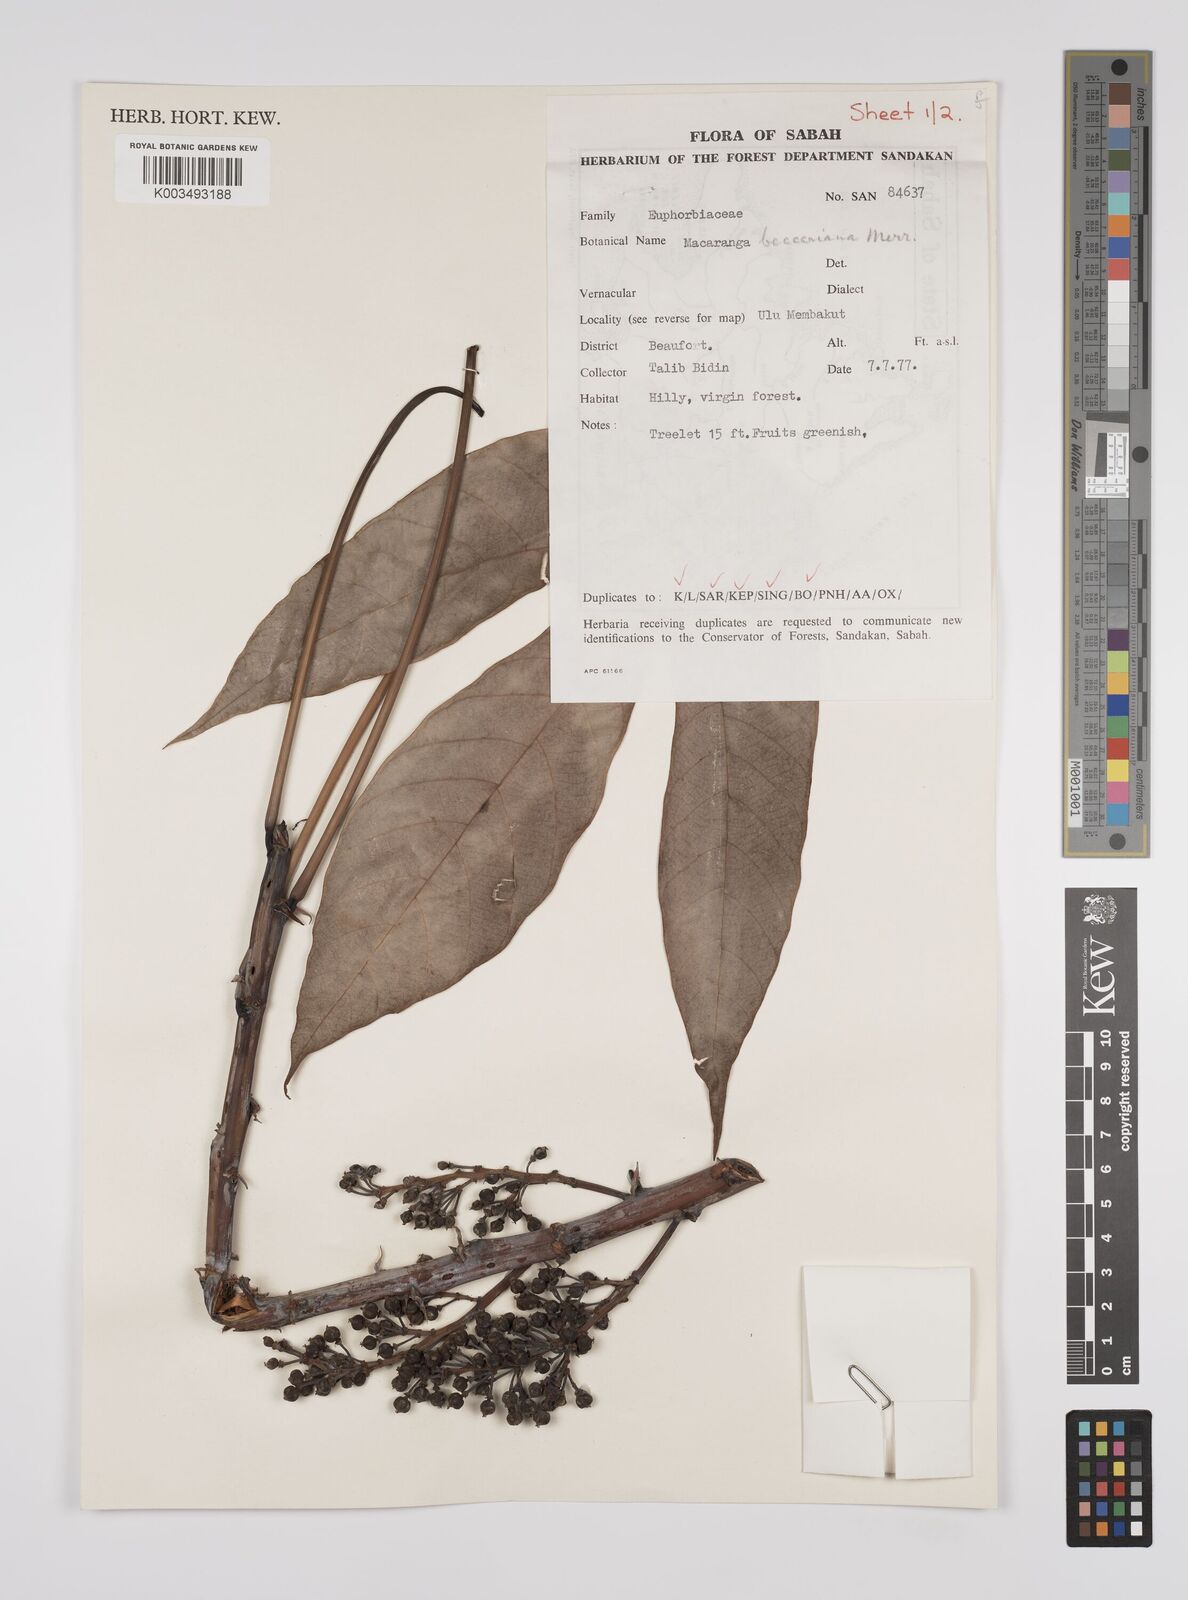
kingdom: Plantae
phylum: Tracheophyta
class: Magnoliopsida
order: Malpighiales
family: Euphorbiaceae
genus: Macaranga
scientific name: Macaranga beccariana
